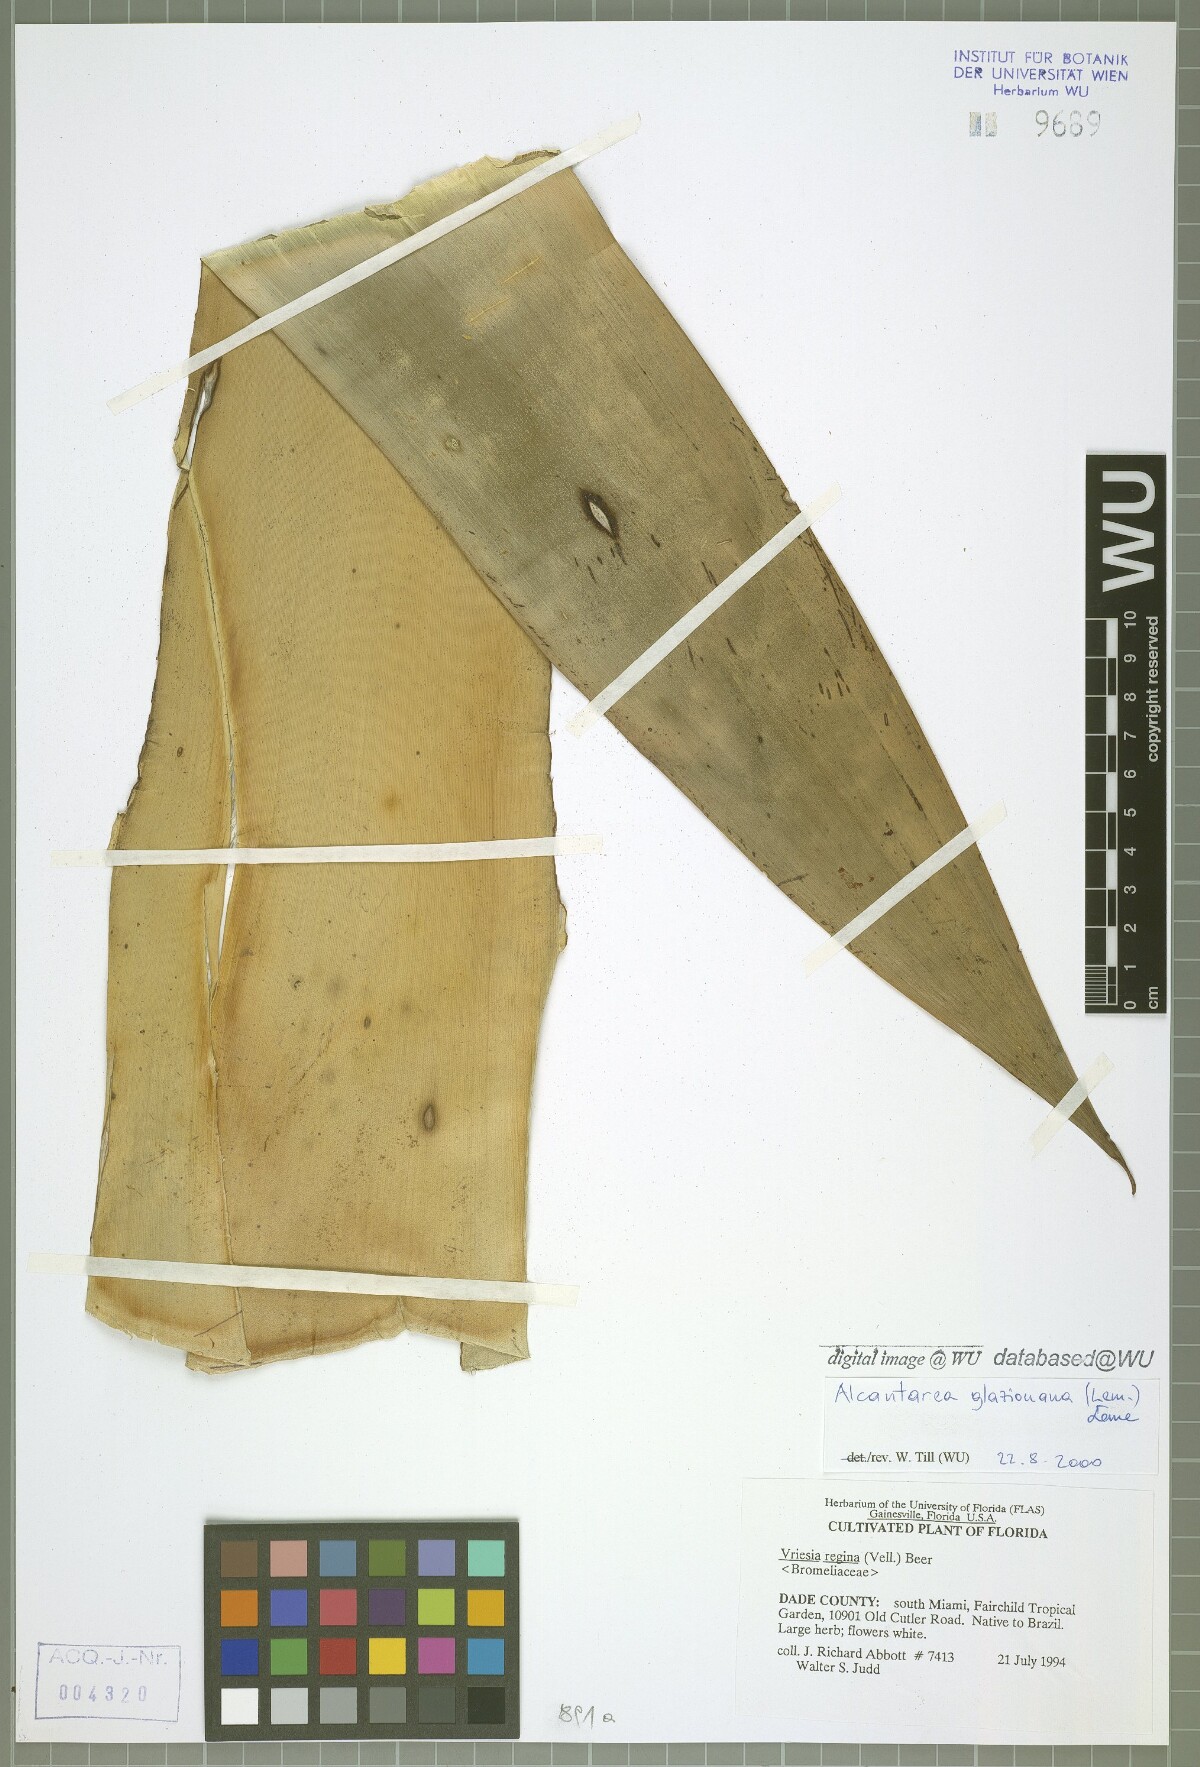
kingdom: Plantae
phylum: Tracheophyta
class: Liliopsida
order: Poales
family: Bromeliaceae
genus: Alcantarea
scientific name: Alcantarea glaziouana
